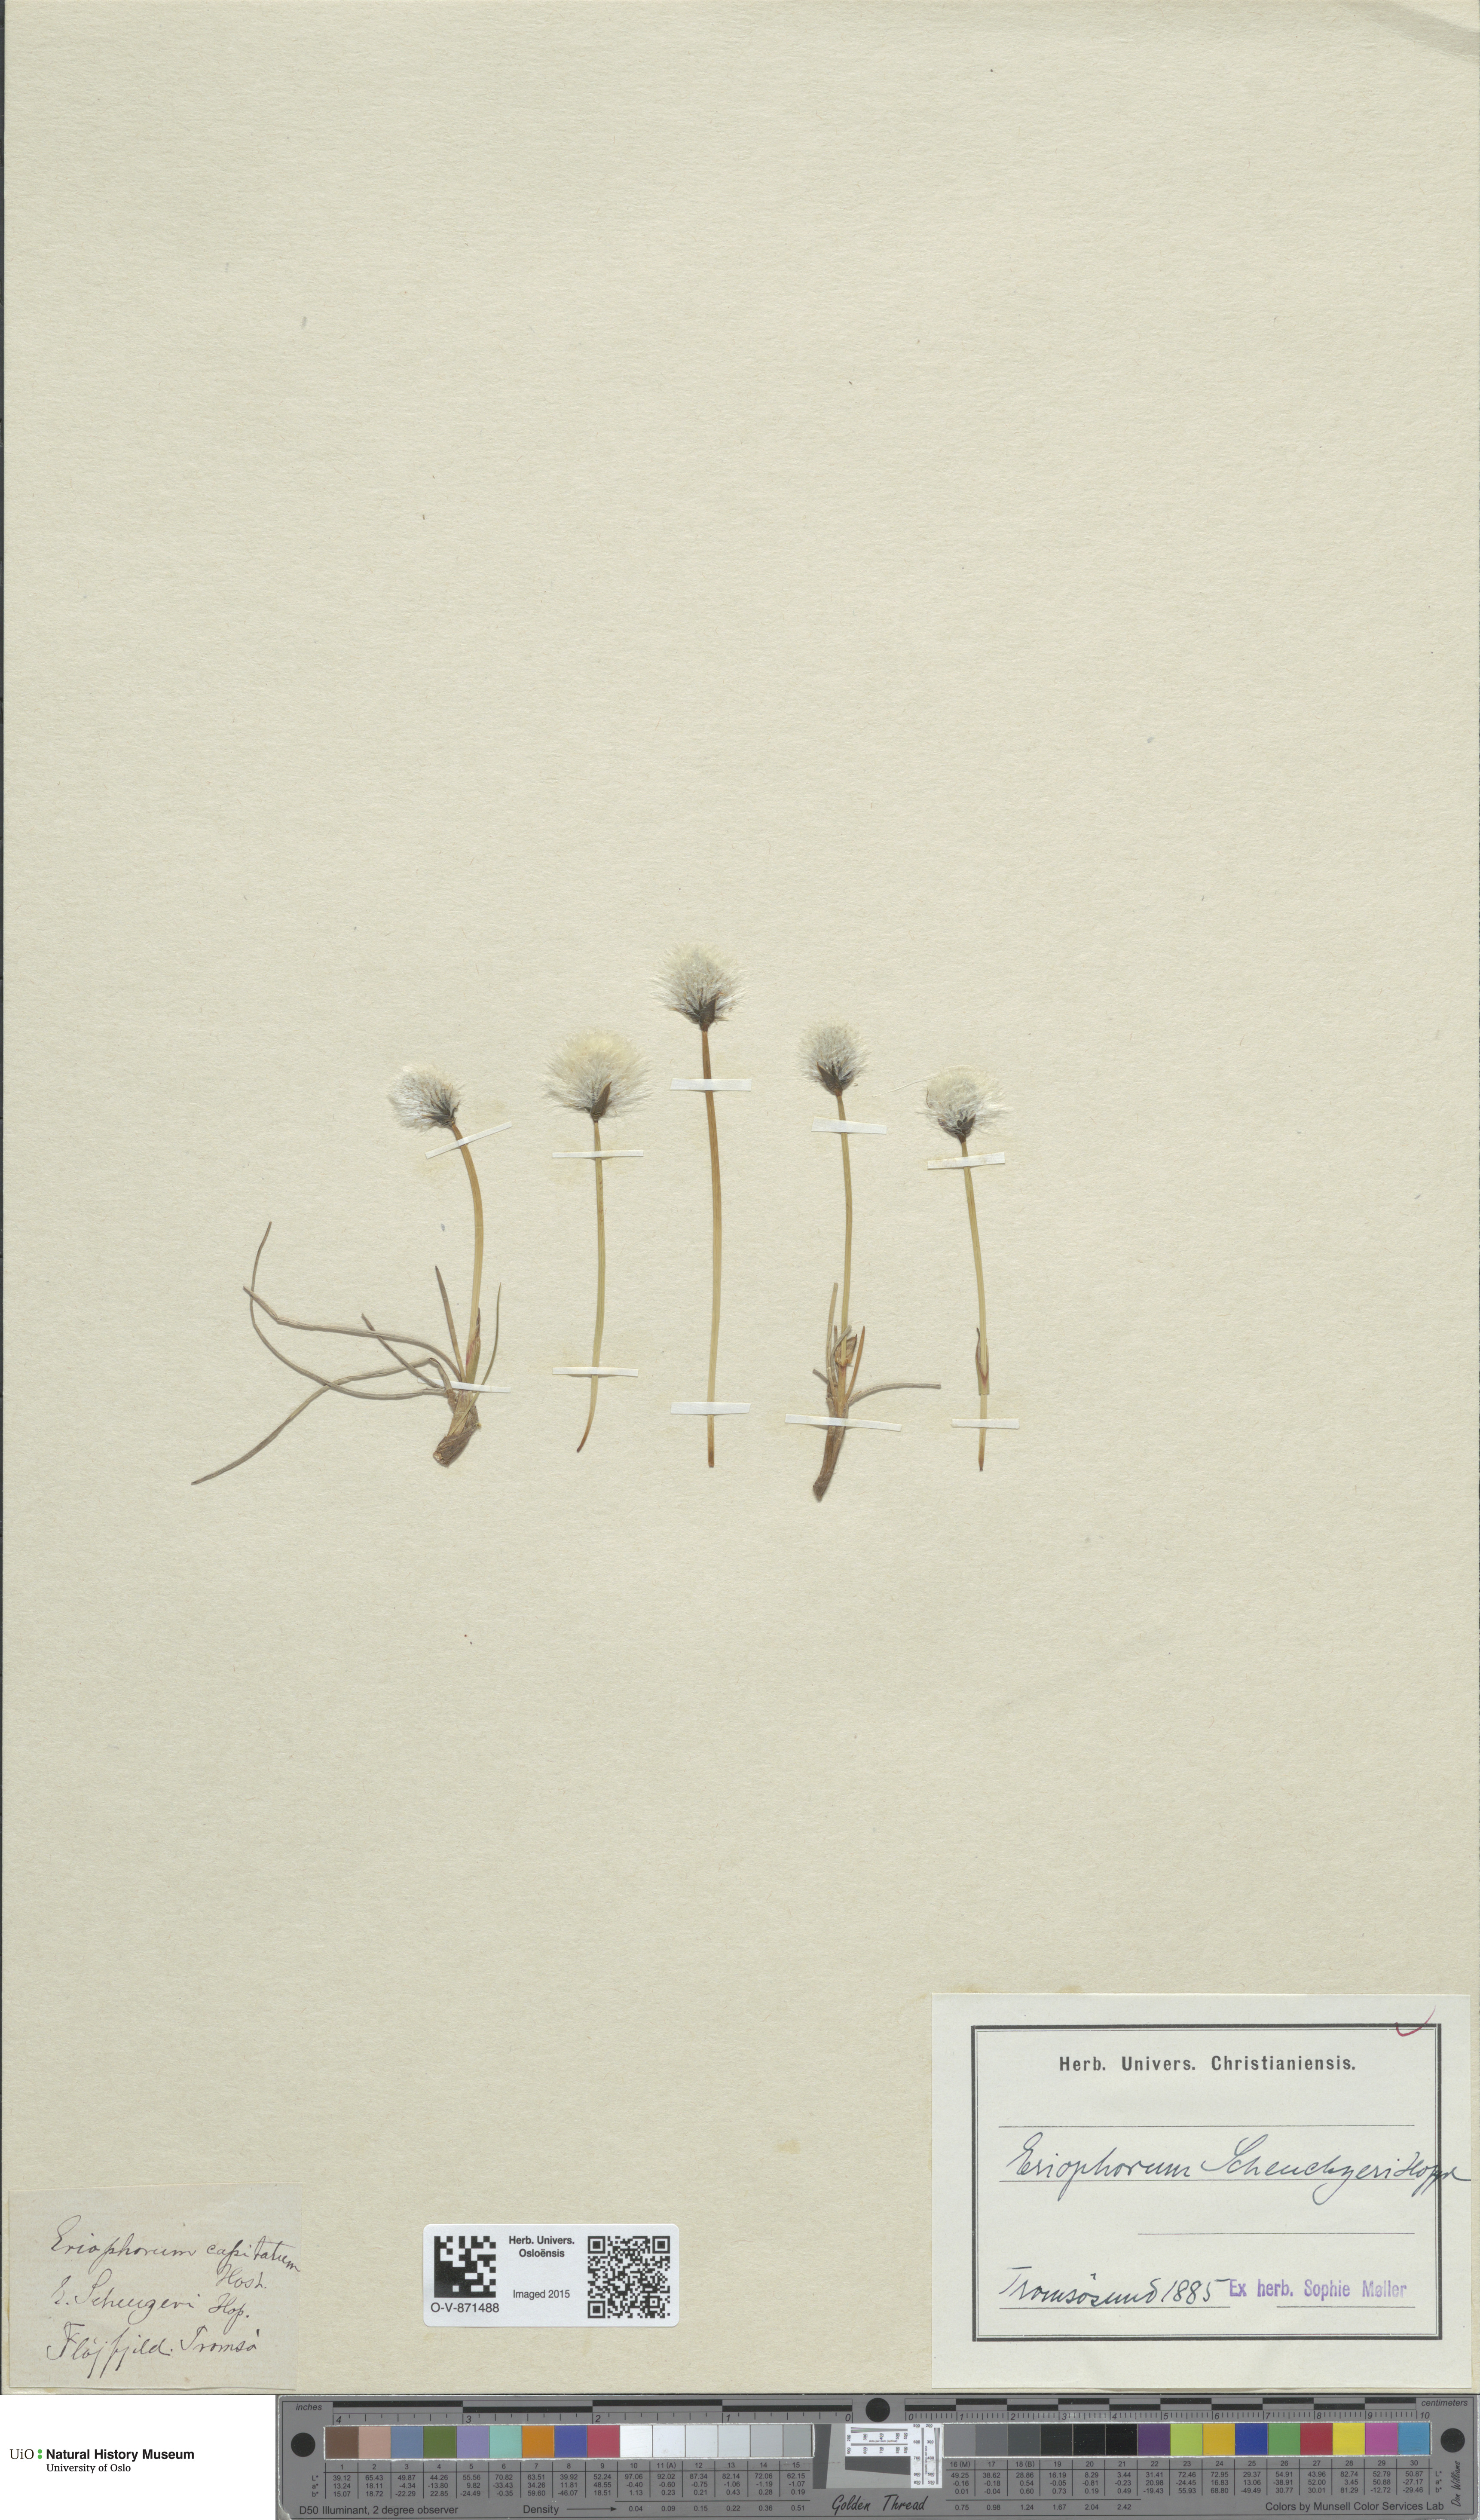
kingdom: Plantae
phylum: Tracheophyta
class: Liliopsida
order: Poales
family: Cyperaceae
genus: Eriophorum
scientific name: Eriophorum scheuchzeri
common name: Scheuchzer's cottongrass
